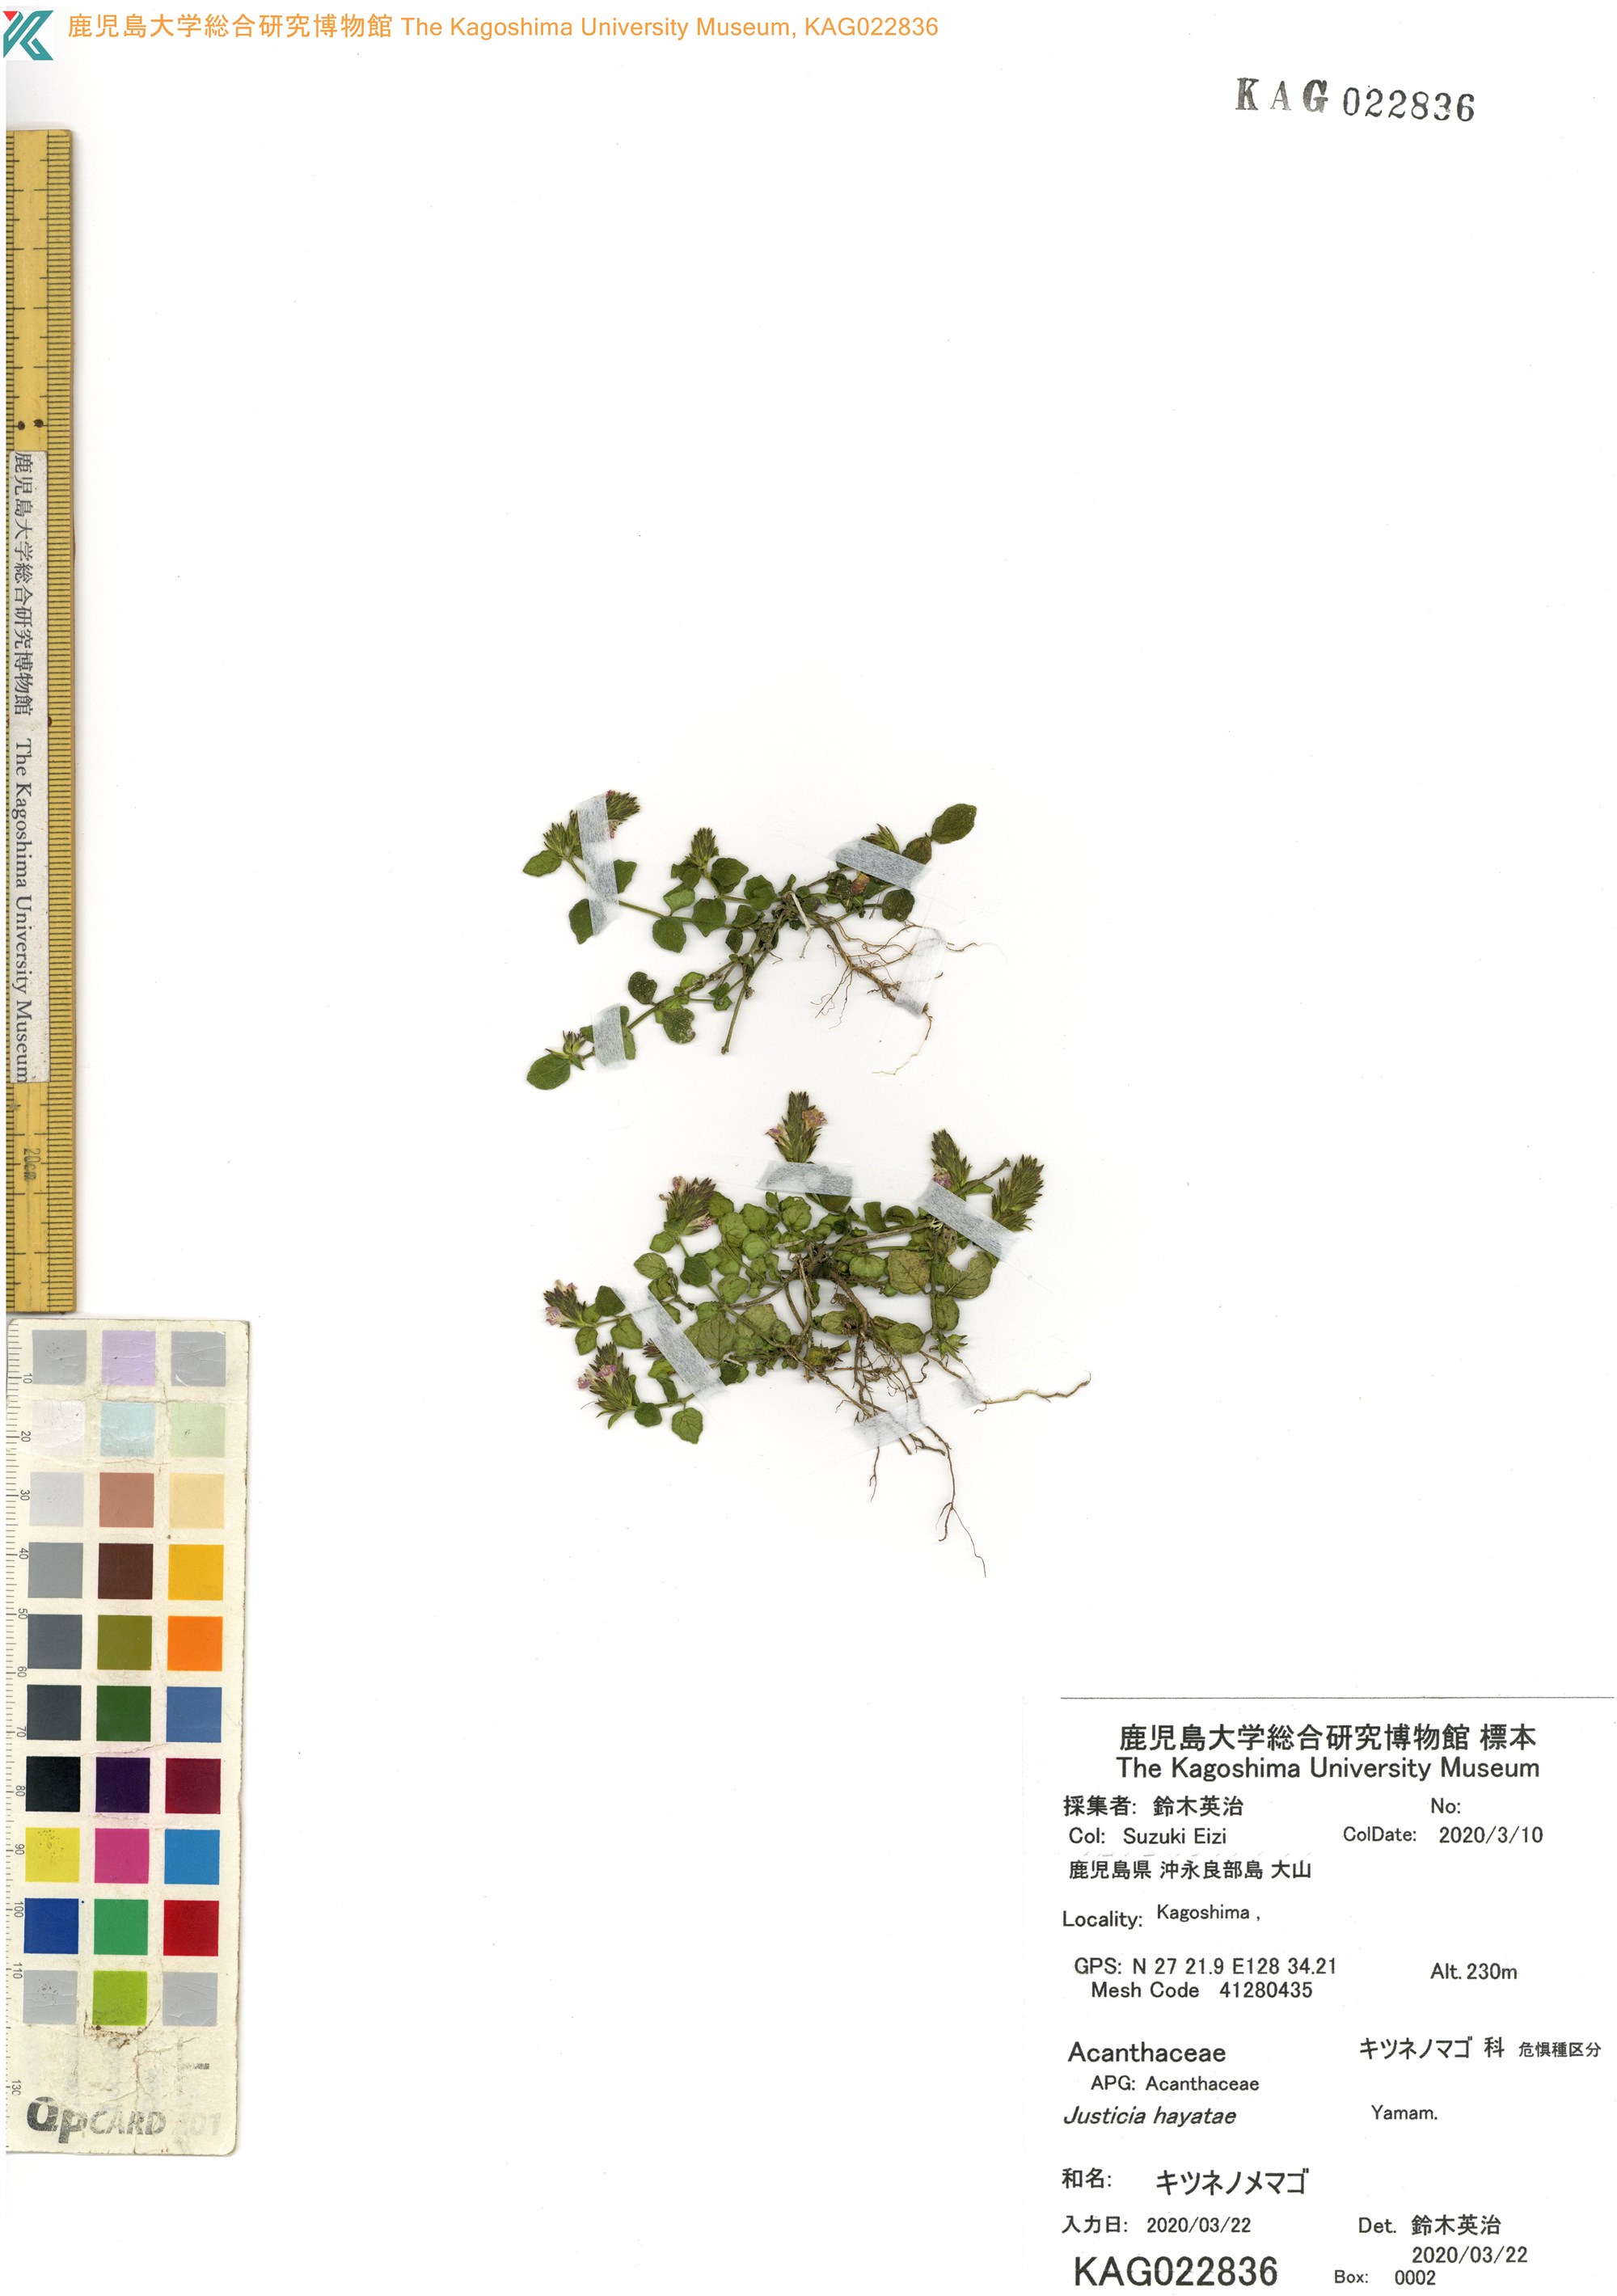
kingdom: Plantae
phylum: Tracheophyta
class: Magnoliopsida
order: Lamiales
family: Acanthaceae
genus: Rostellularia
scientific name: Rostellularia hayatae
